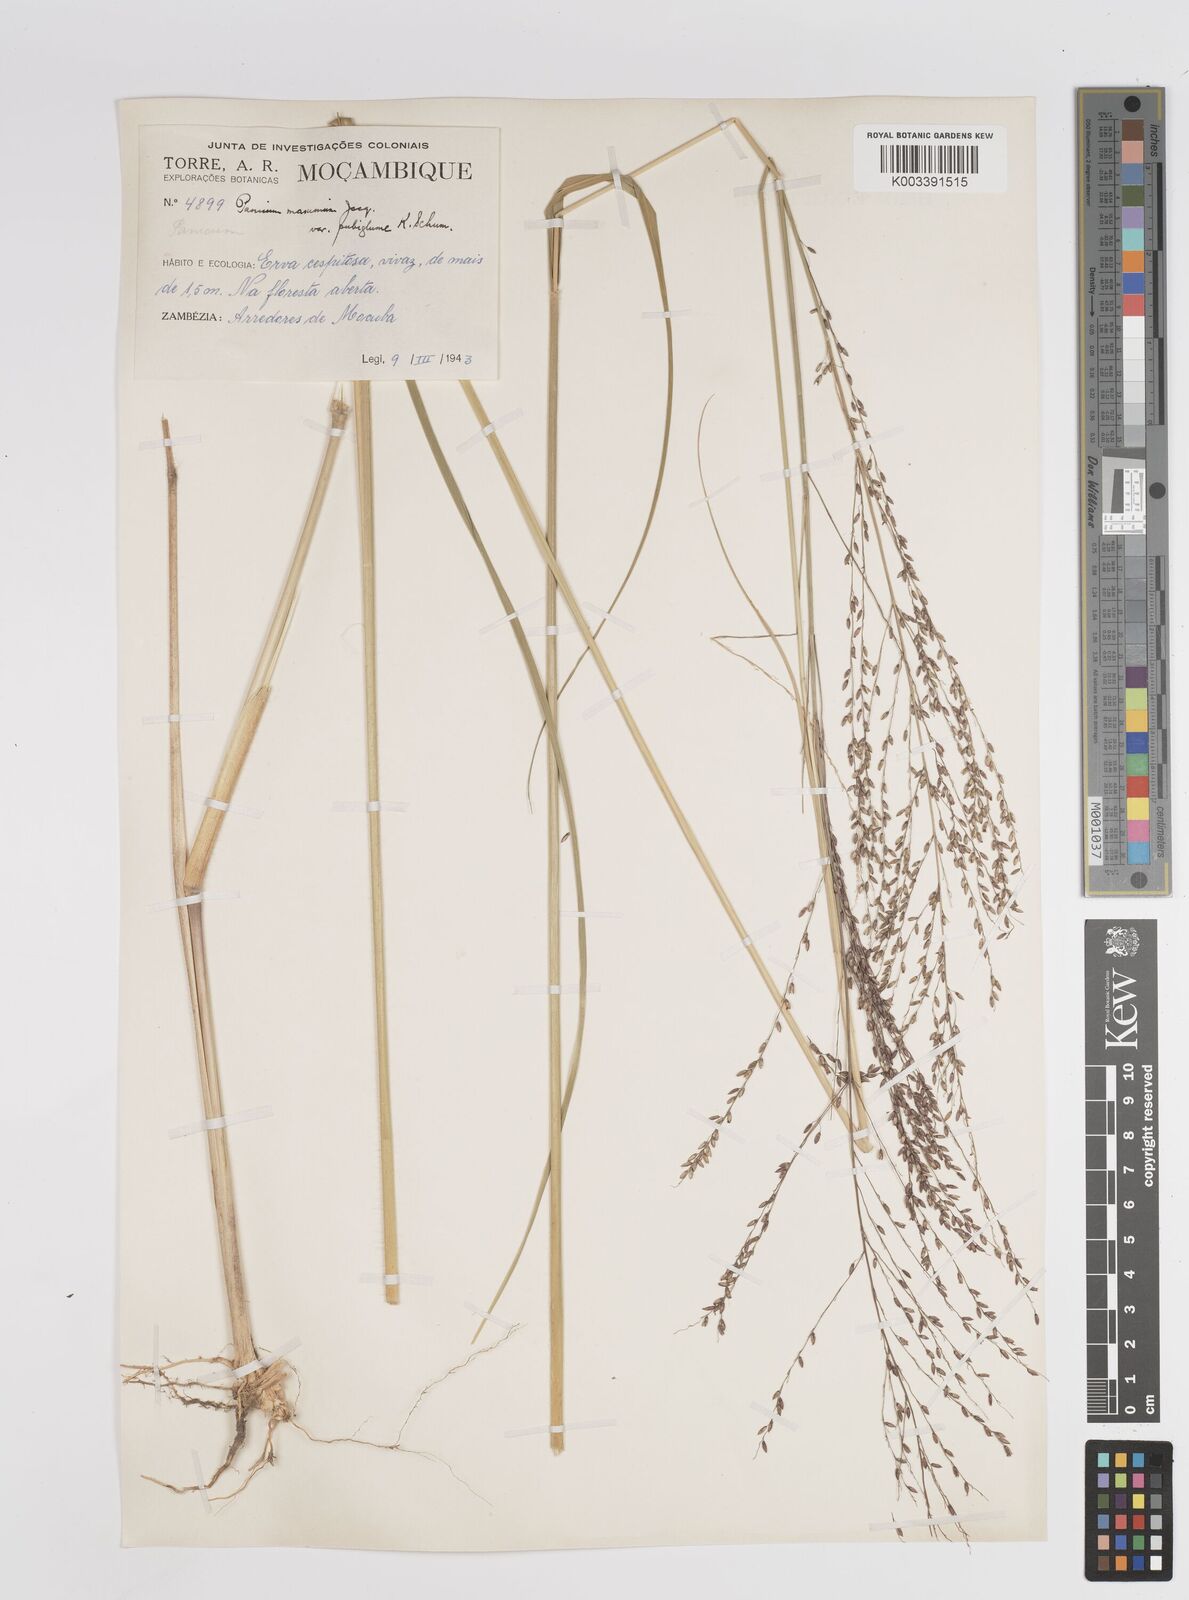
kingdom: Plantae
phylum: Tracheophyta
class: Liliopsida
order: Poales
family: Poaceae
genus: Megathyrsus
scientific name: Megathyrsus maximus
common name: Guineagrass
